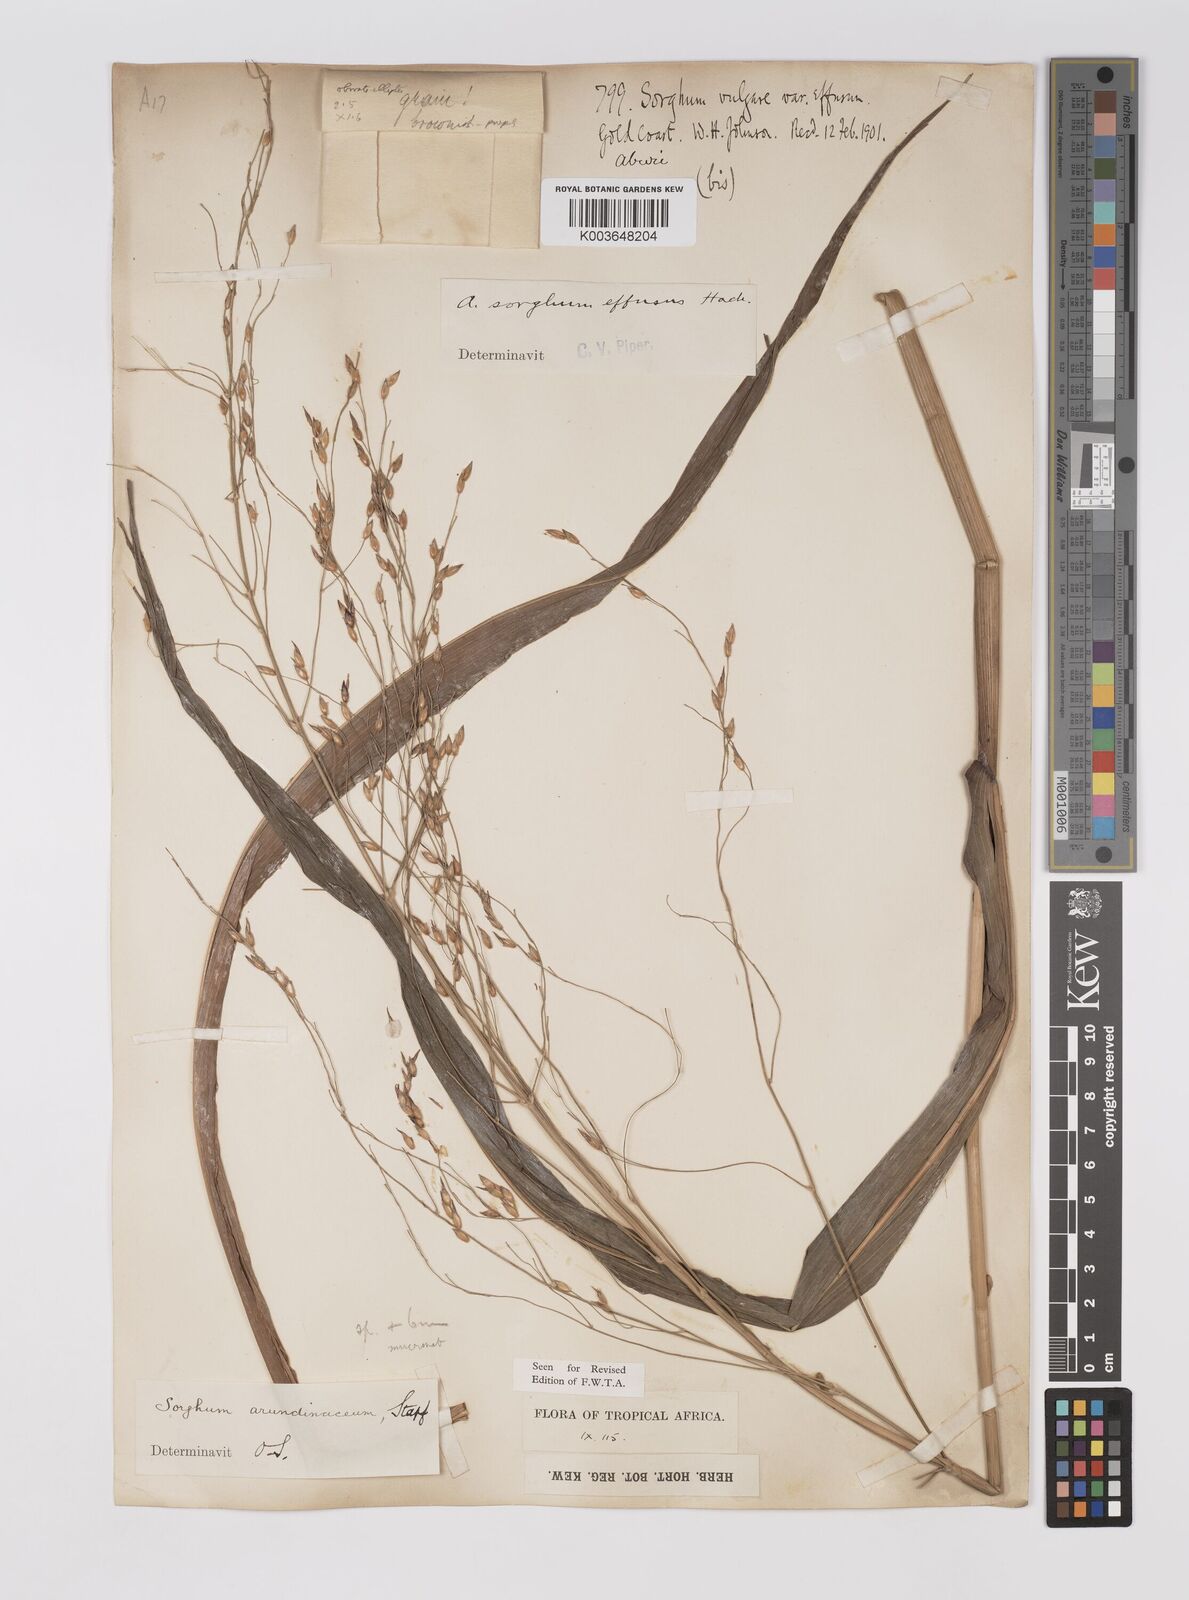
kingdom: Plantae
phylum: Tracheophyta
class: Liliopsida
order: Poales
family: Poaceae
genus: Sorghum
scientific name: Sorghum arundinaceum
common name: Sorghum
